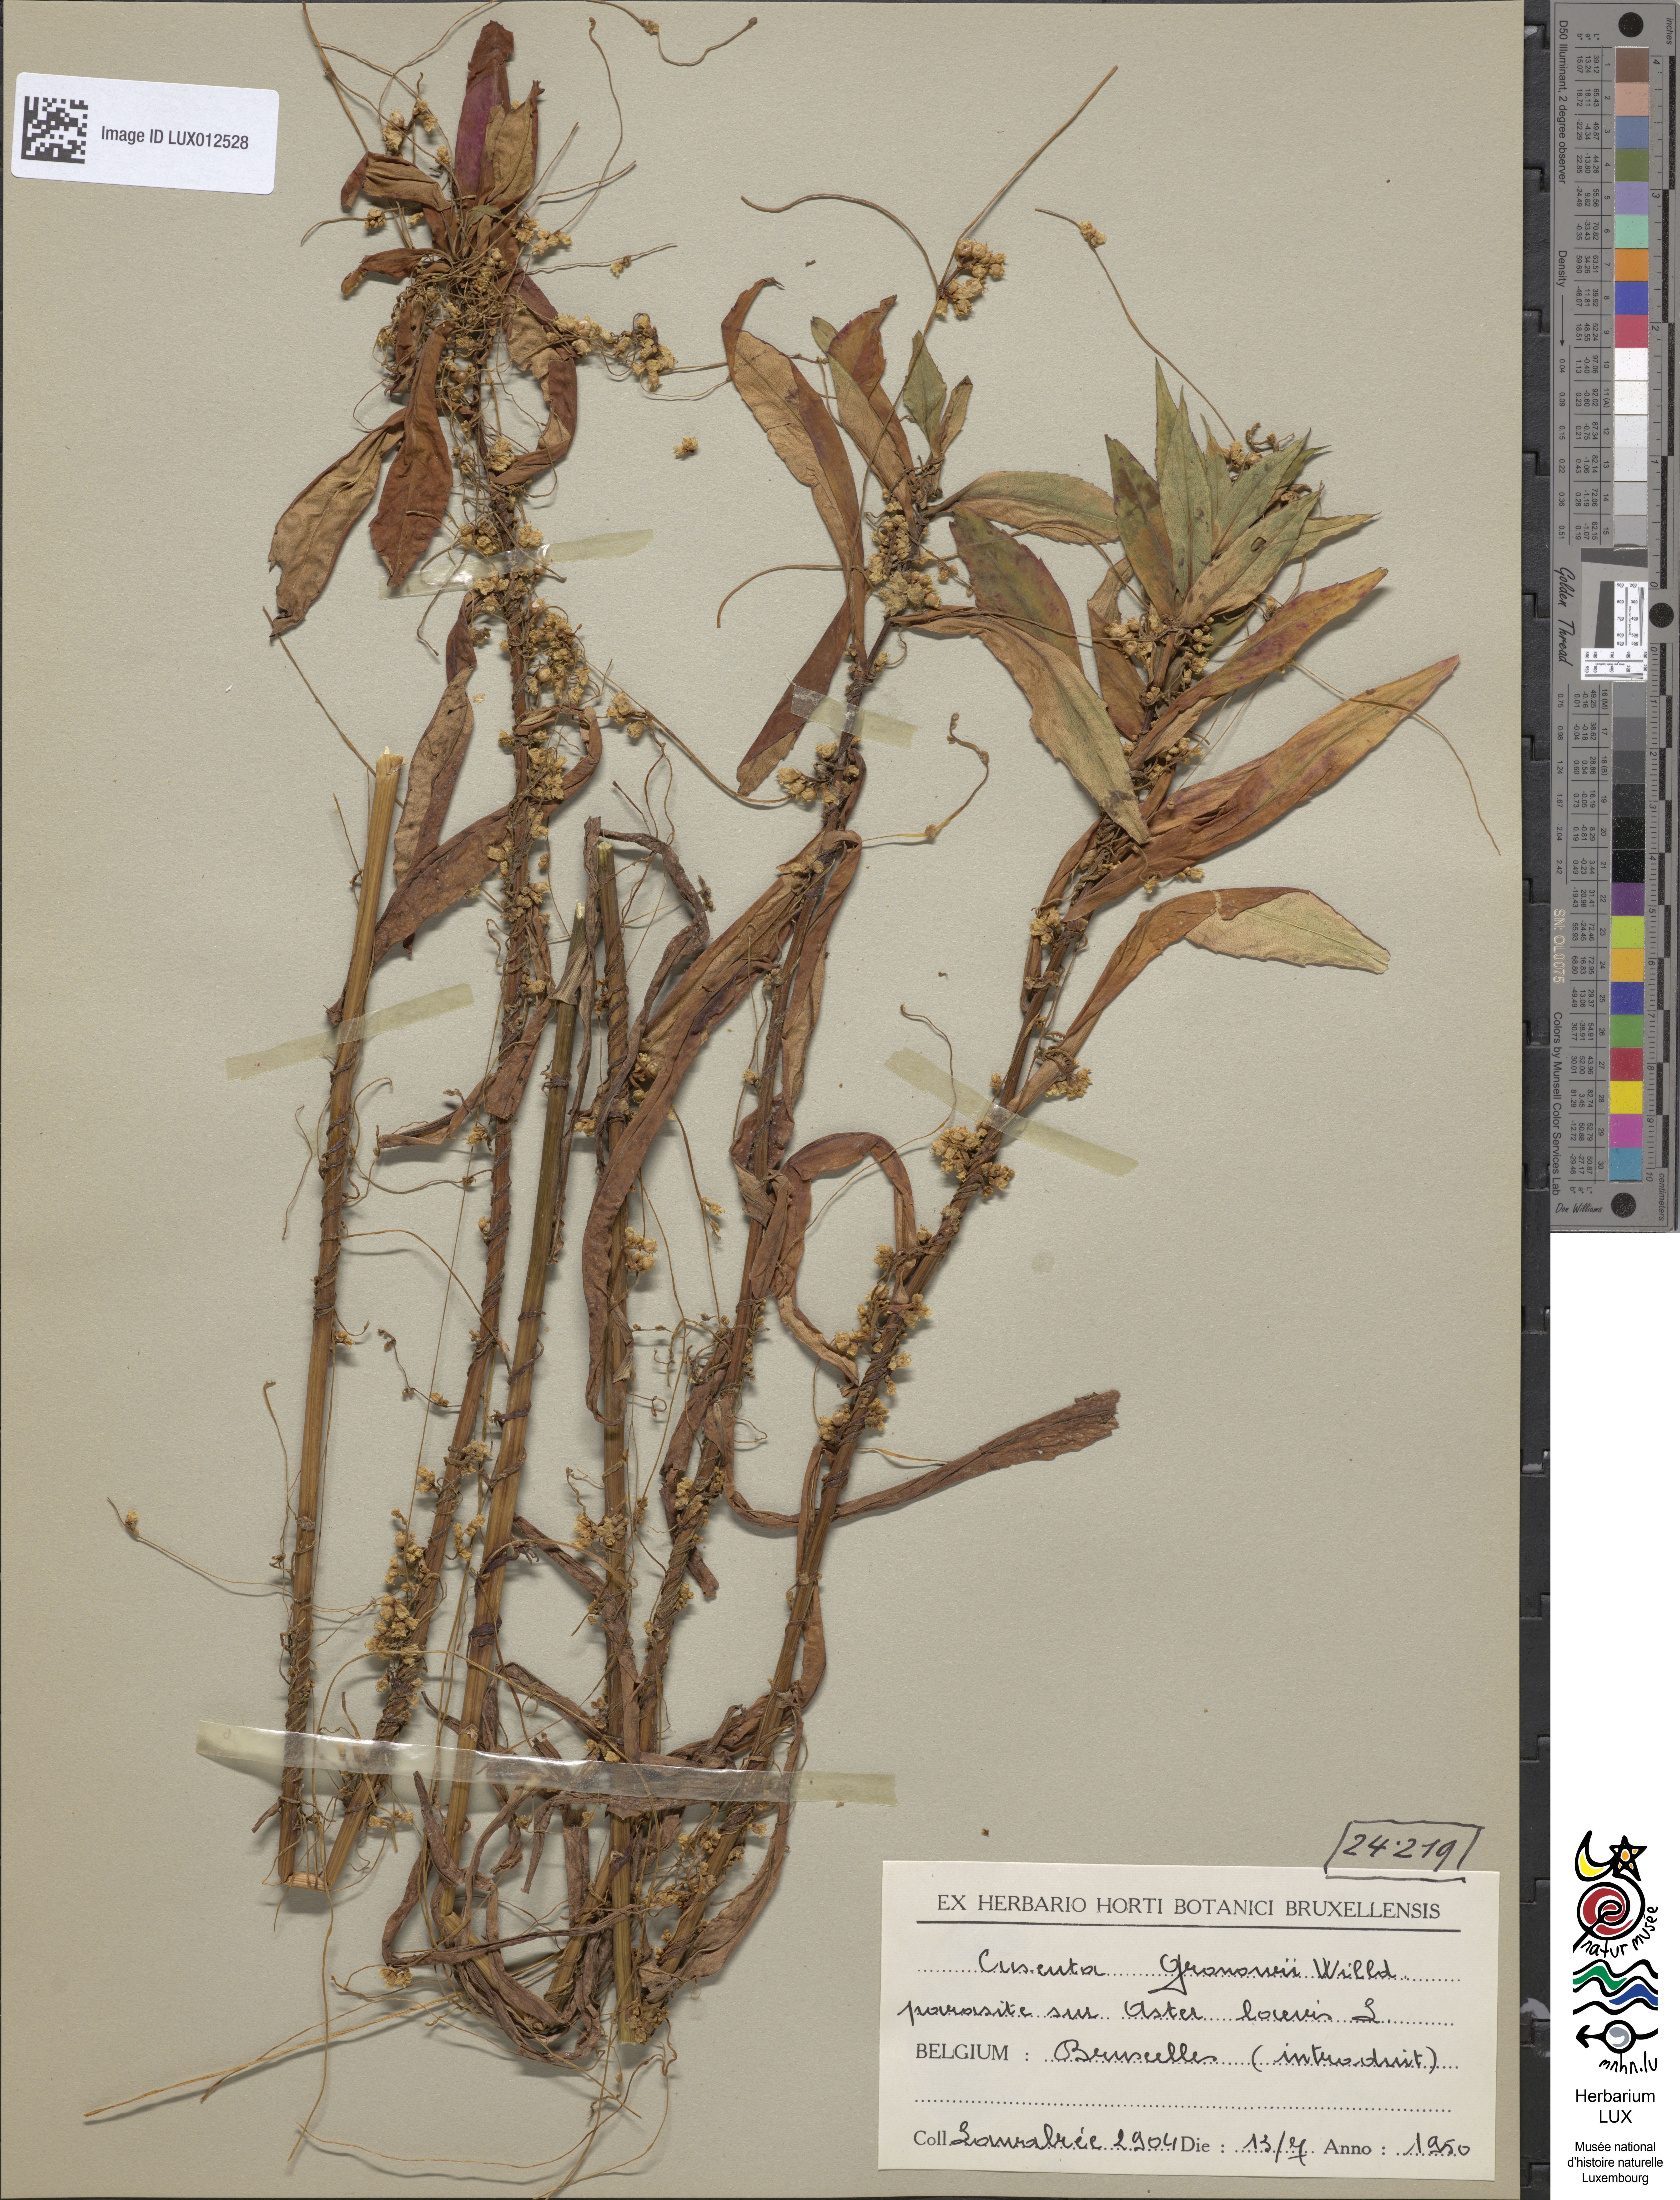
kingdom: Plantae
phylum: Tracheophyta
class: Magnoliopsida
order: Solanales
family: Convolvulaceae
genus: Cuscuta
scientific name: Cuscuta gronovii
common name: Common dodder
